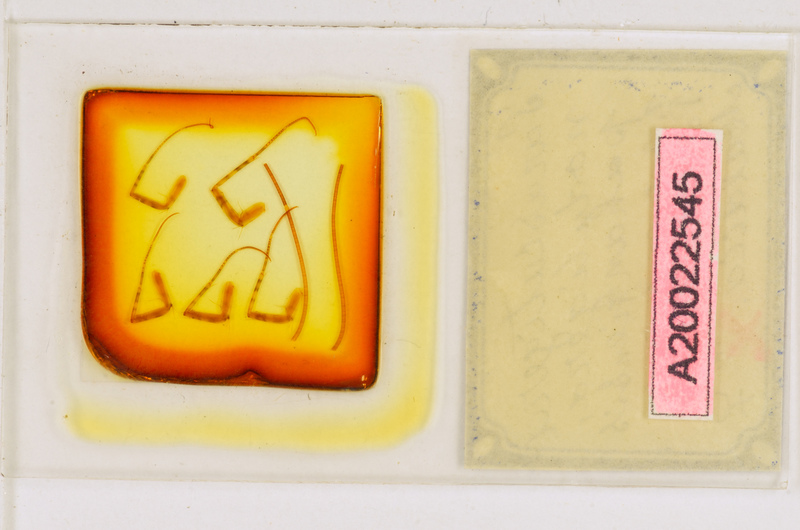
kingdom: Animalia
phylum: Arthropoda
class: Chilopoda
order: Scutigeromorpha
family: Scutigeridae
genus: Parascutigera
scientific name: Parascutigera noduligera
